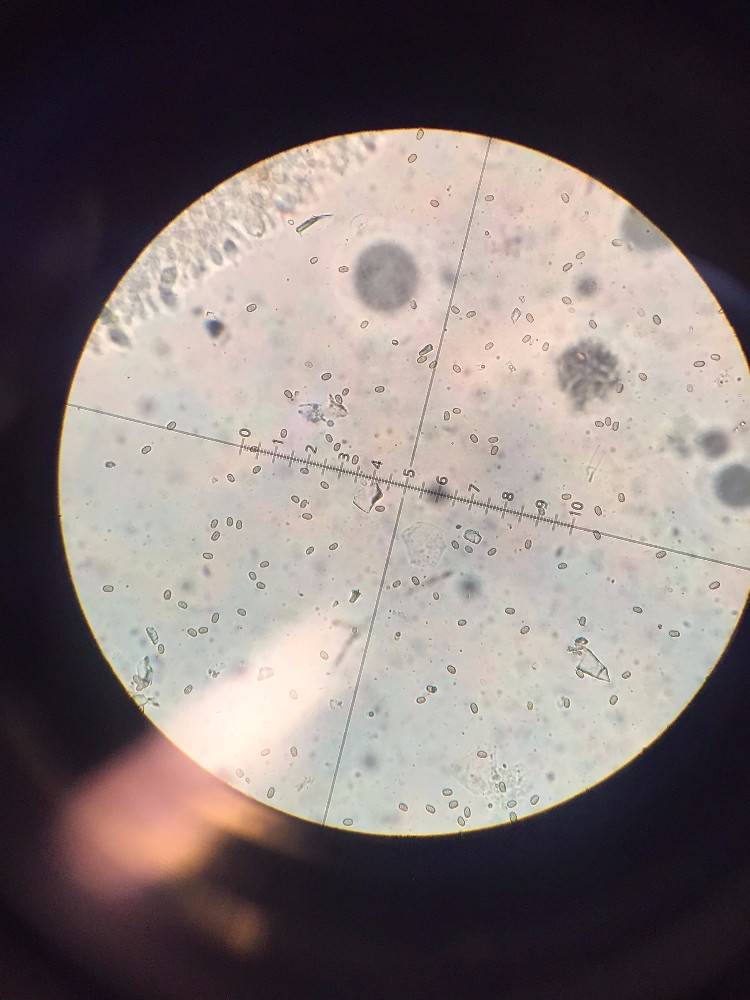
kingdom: Fungi
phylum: Basidiomycota
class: Agaricomycetes
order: Agaricales
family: Strophariaceae
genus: Pholiota
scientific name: Pholiota squarrosa
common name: krumskællet skælhat
